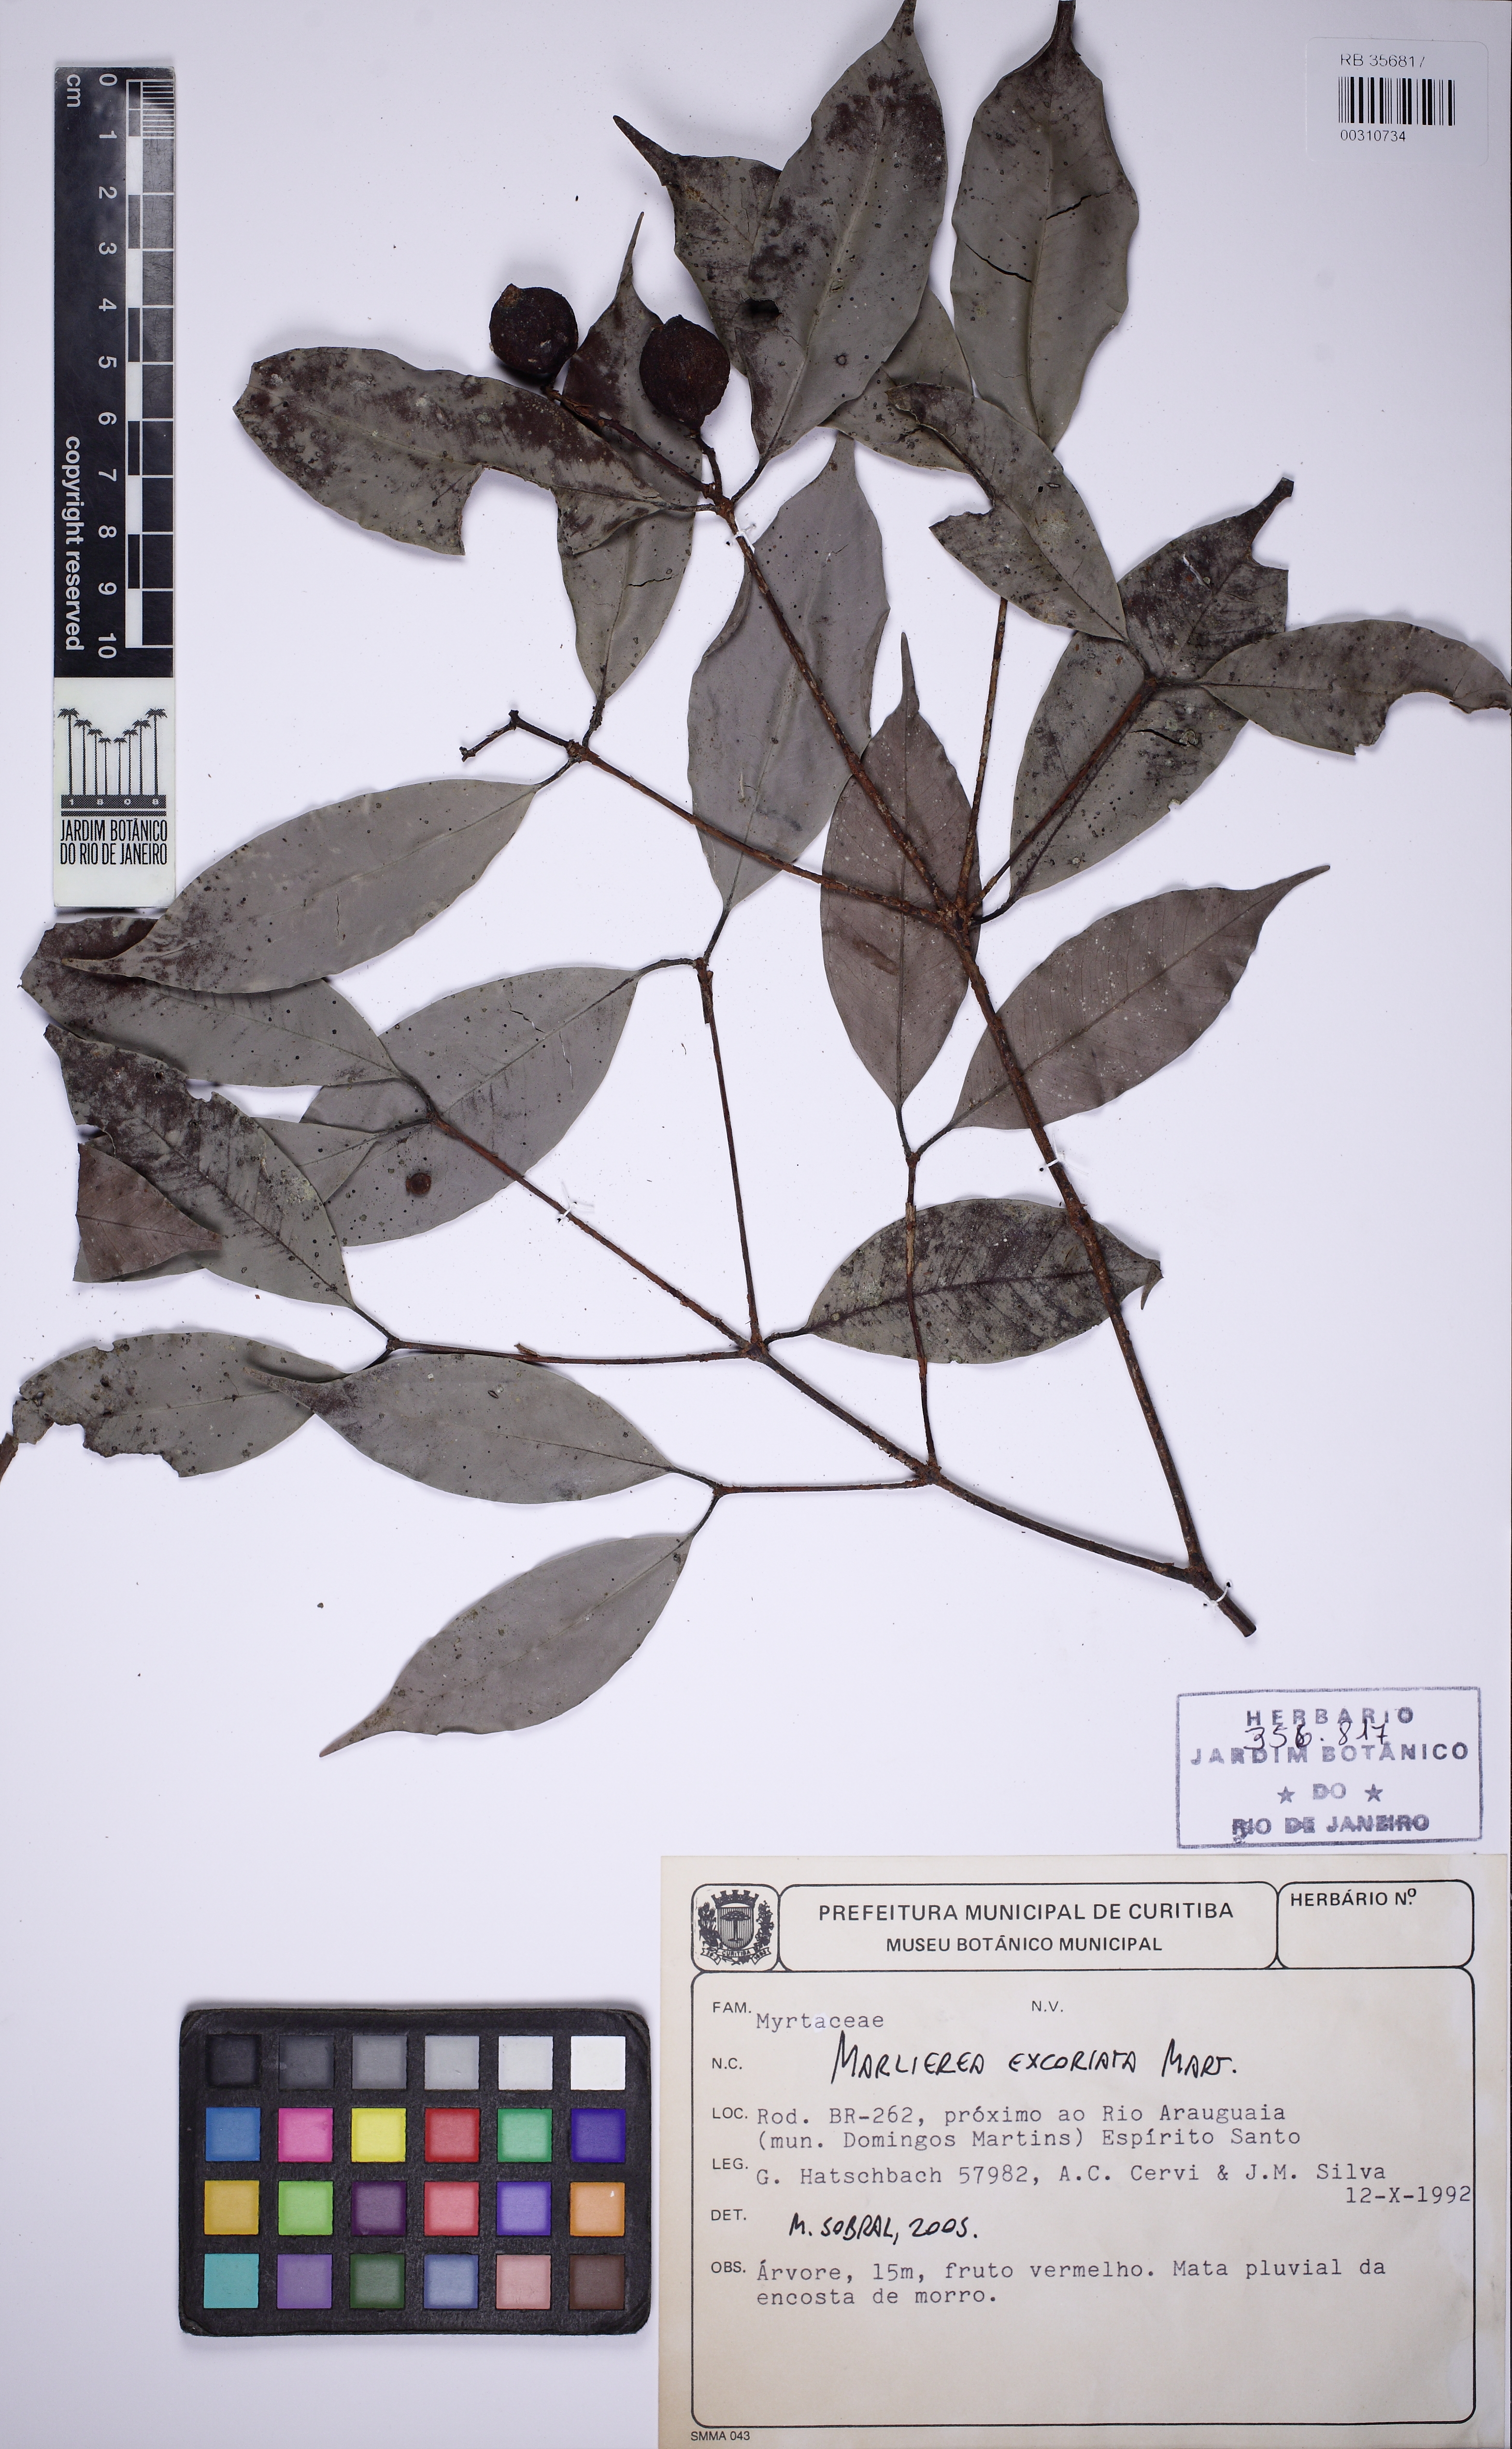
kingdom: Plantae
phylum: Tracheophyta
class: Magnoliopsida
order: Myrtales
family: Myrtaceae
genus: Myrcia
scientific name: Myrcia excoriata
